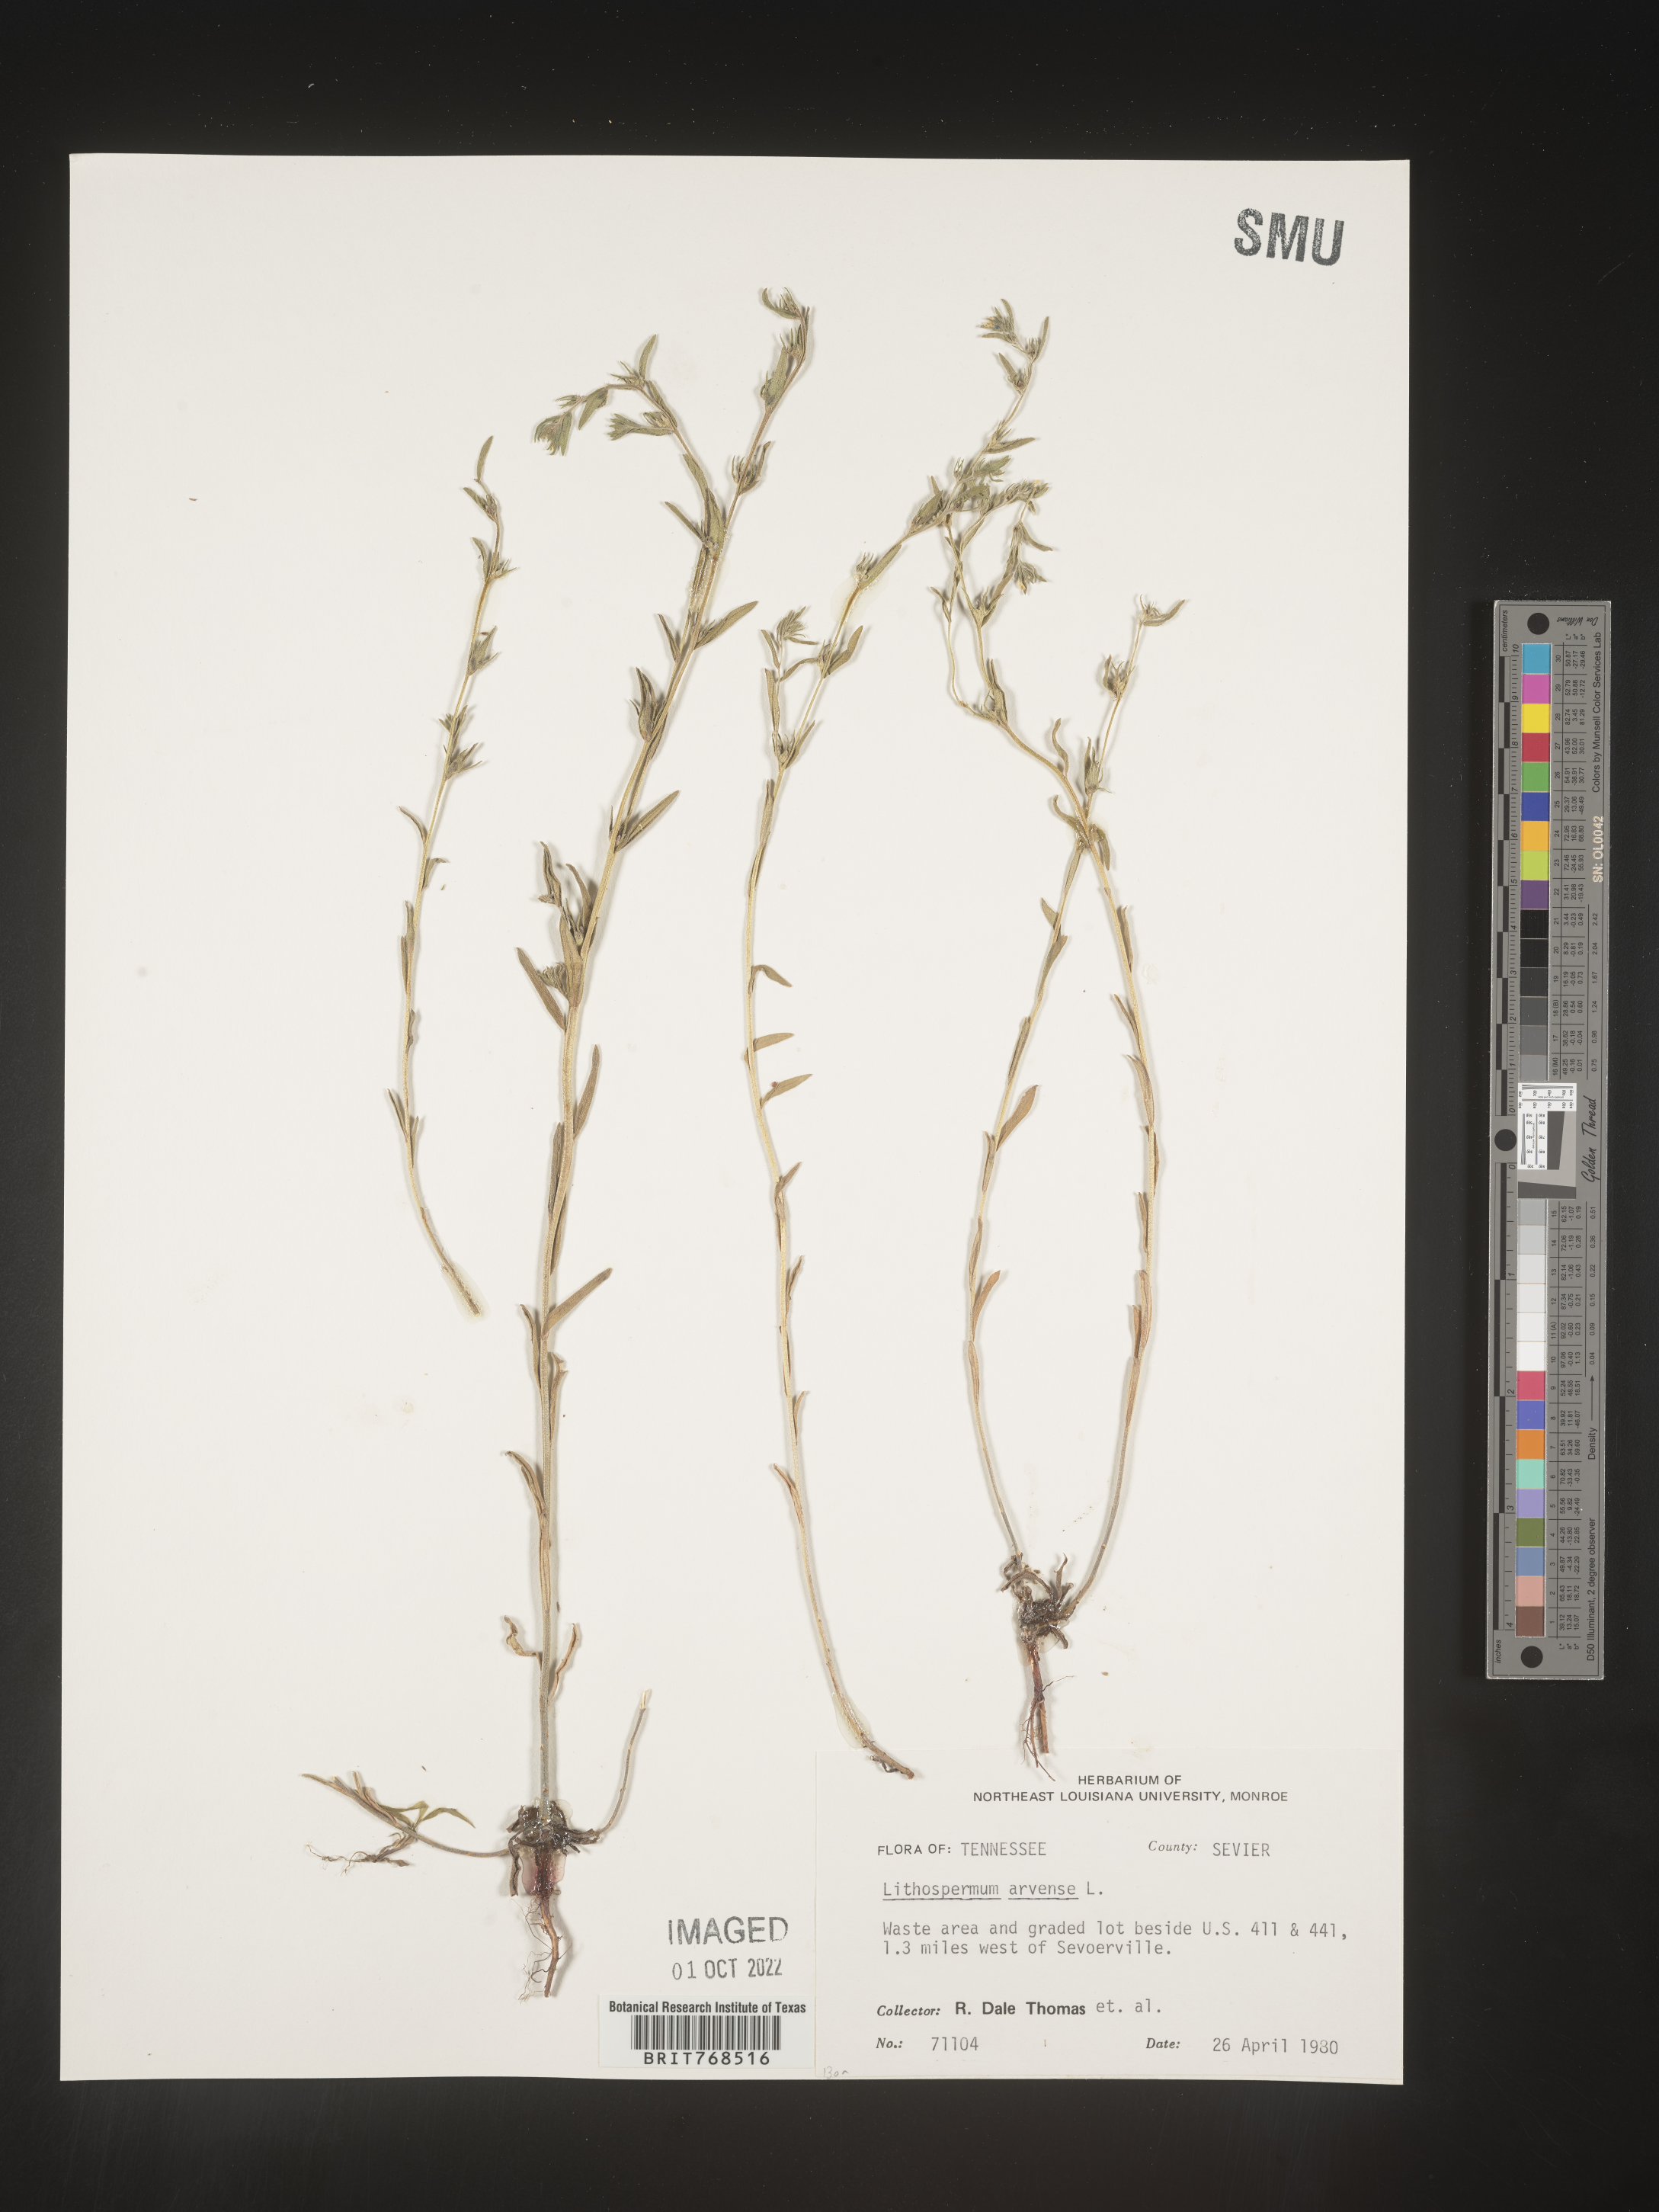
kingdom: Plantae
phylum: Tracheophyta
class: Magnoliopsida
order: Boraginales
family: Boraginaceae
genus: Lithospermum
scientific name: Lithospermum
